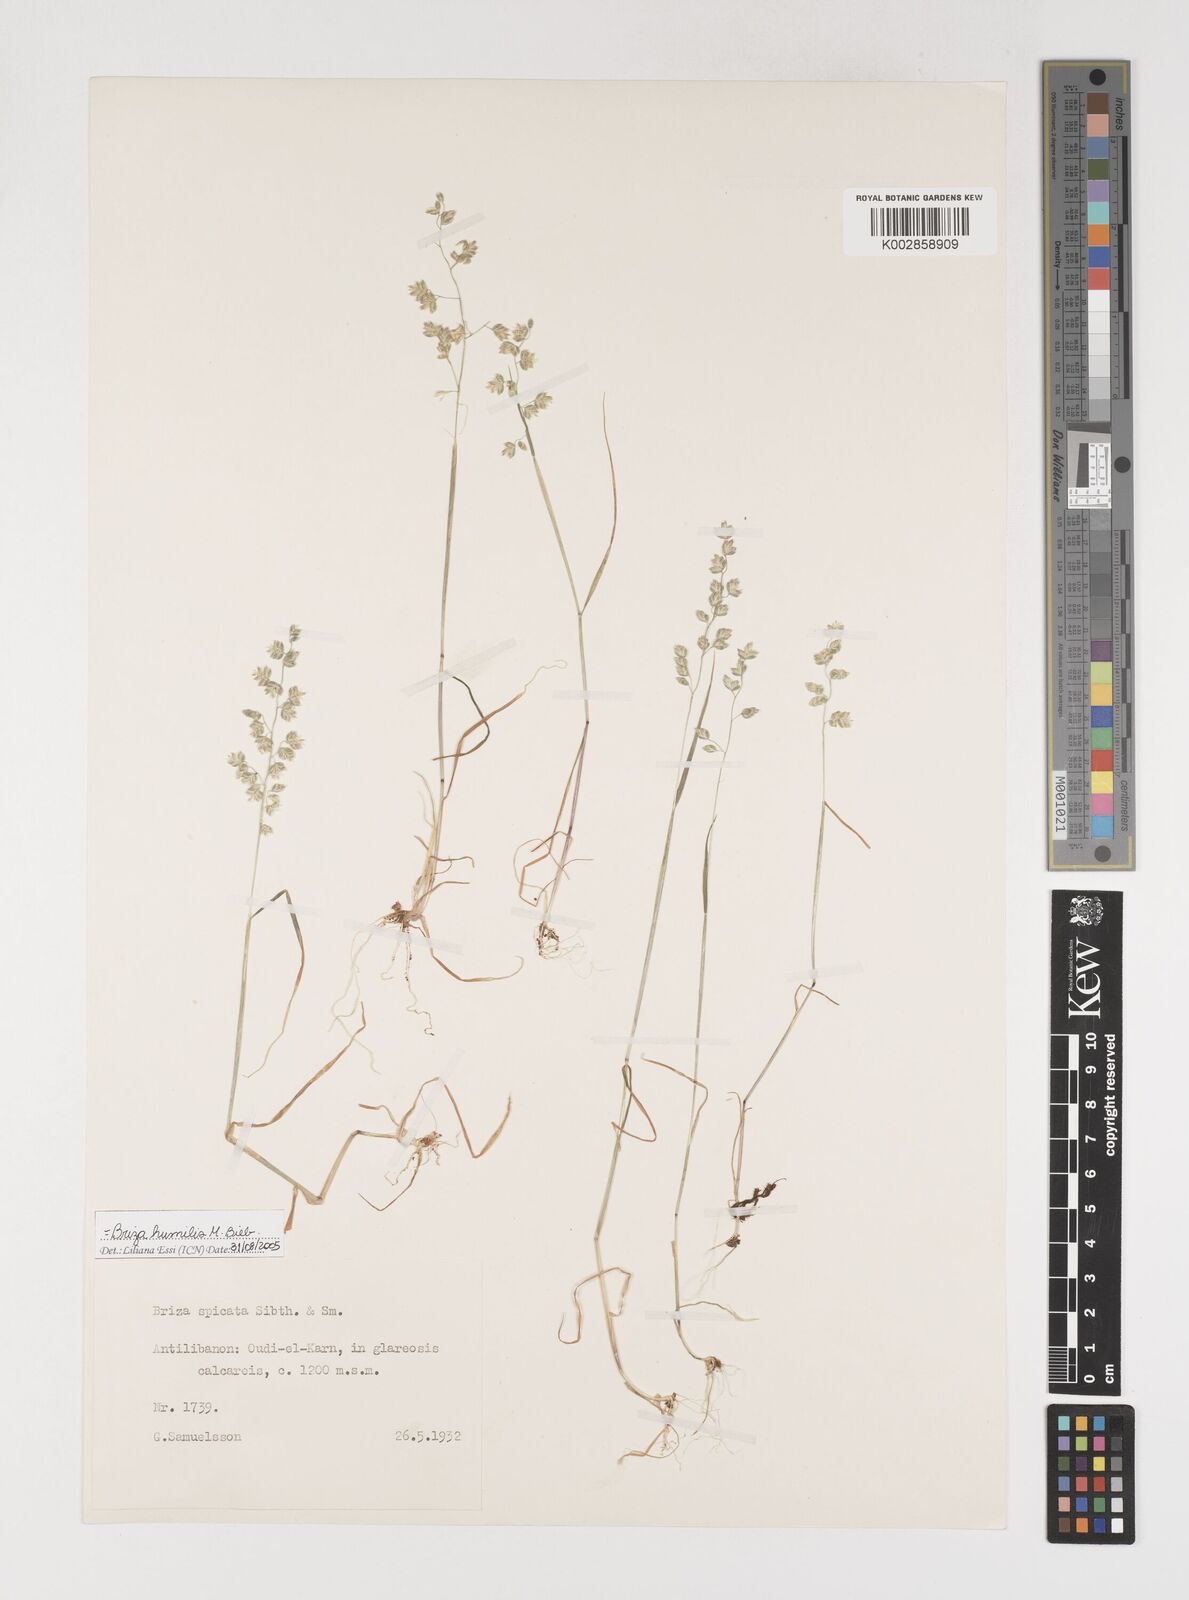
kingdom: Plantae
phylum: Tracheophyta
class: Liliopsida
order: Poales
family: Poaceae
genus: Briza
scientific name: Briza humilis
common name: Spiked quaking grass
